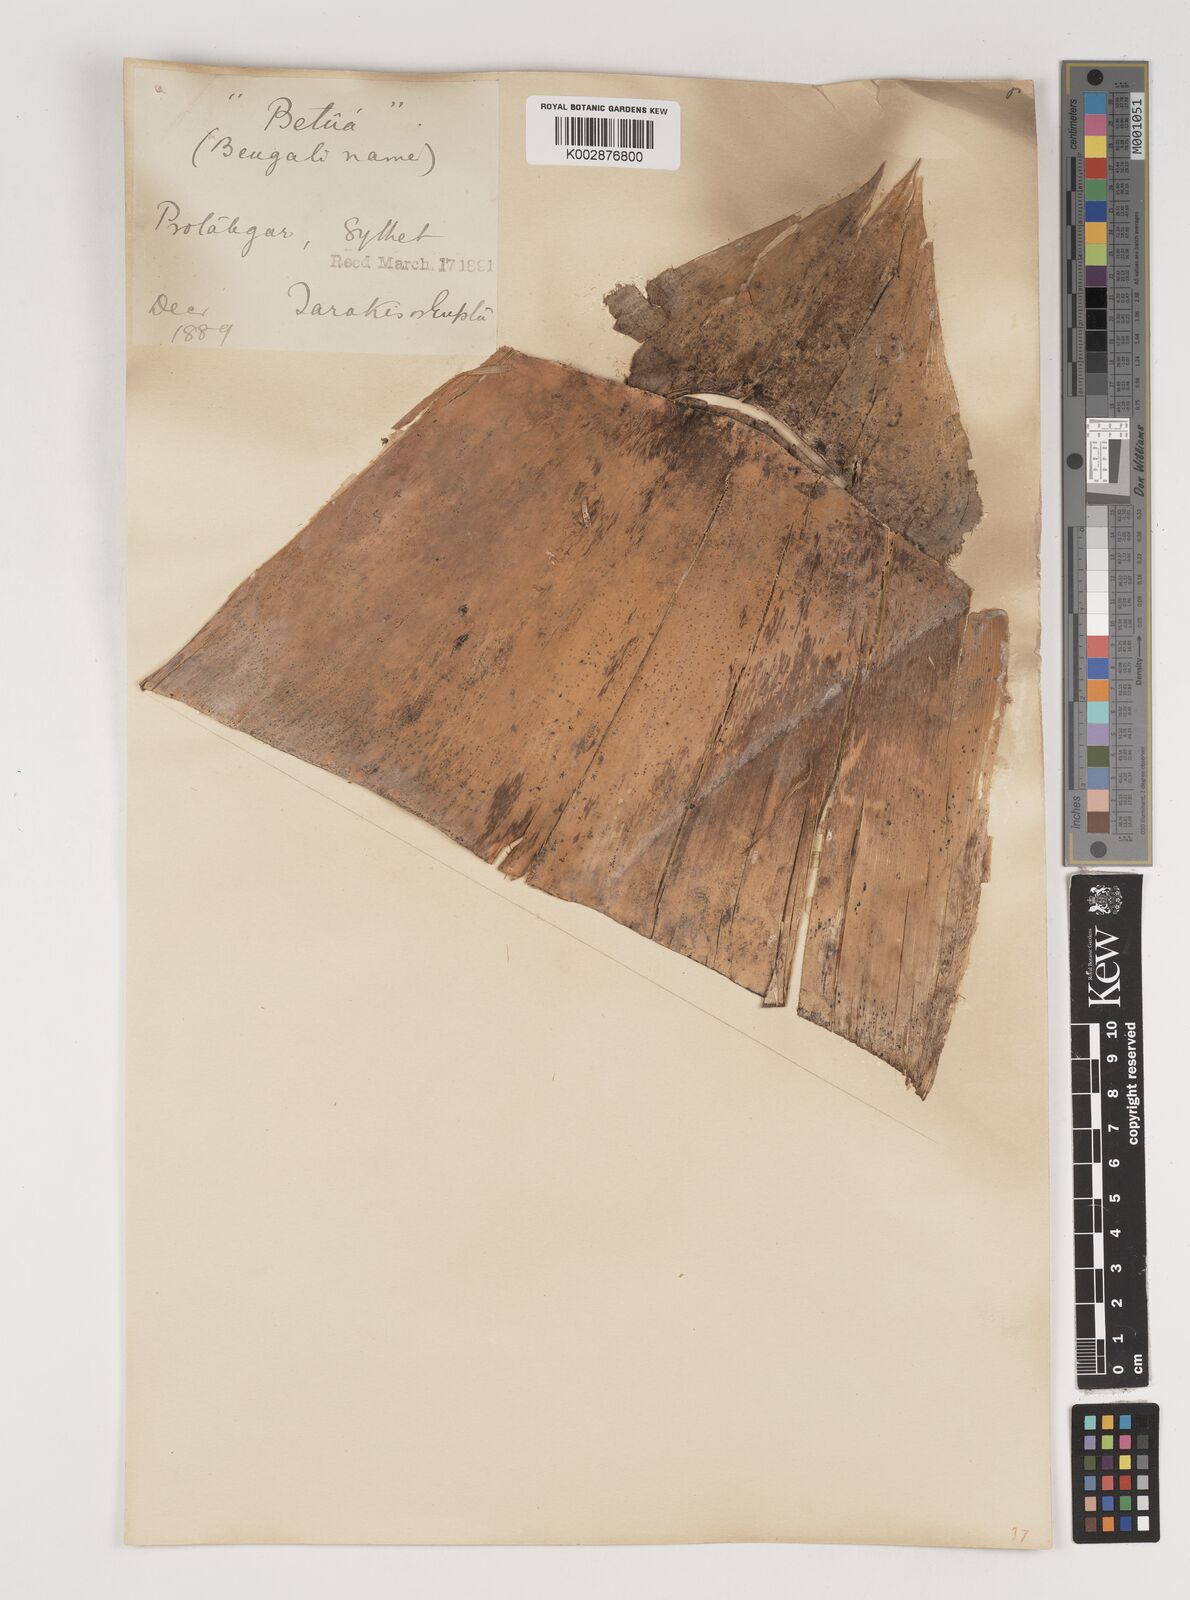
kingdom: Plantae
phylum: Tracheophyta
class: Liliopsida
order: Poales
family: Poaceae
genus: Bambusa
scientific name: Bambusa polymorpha
